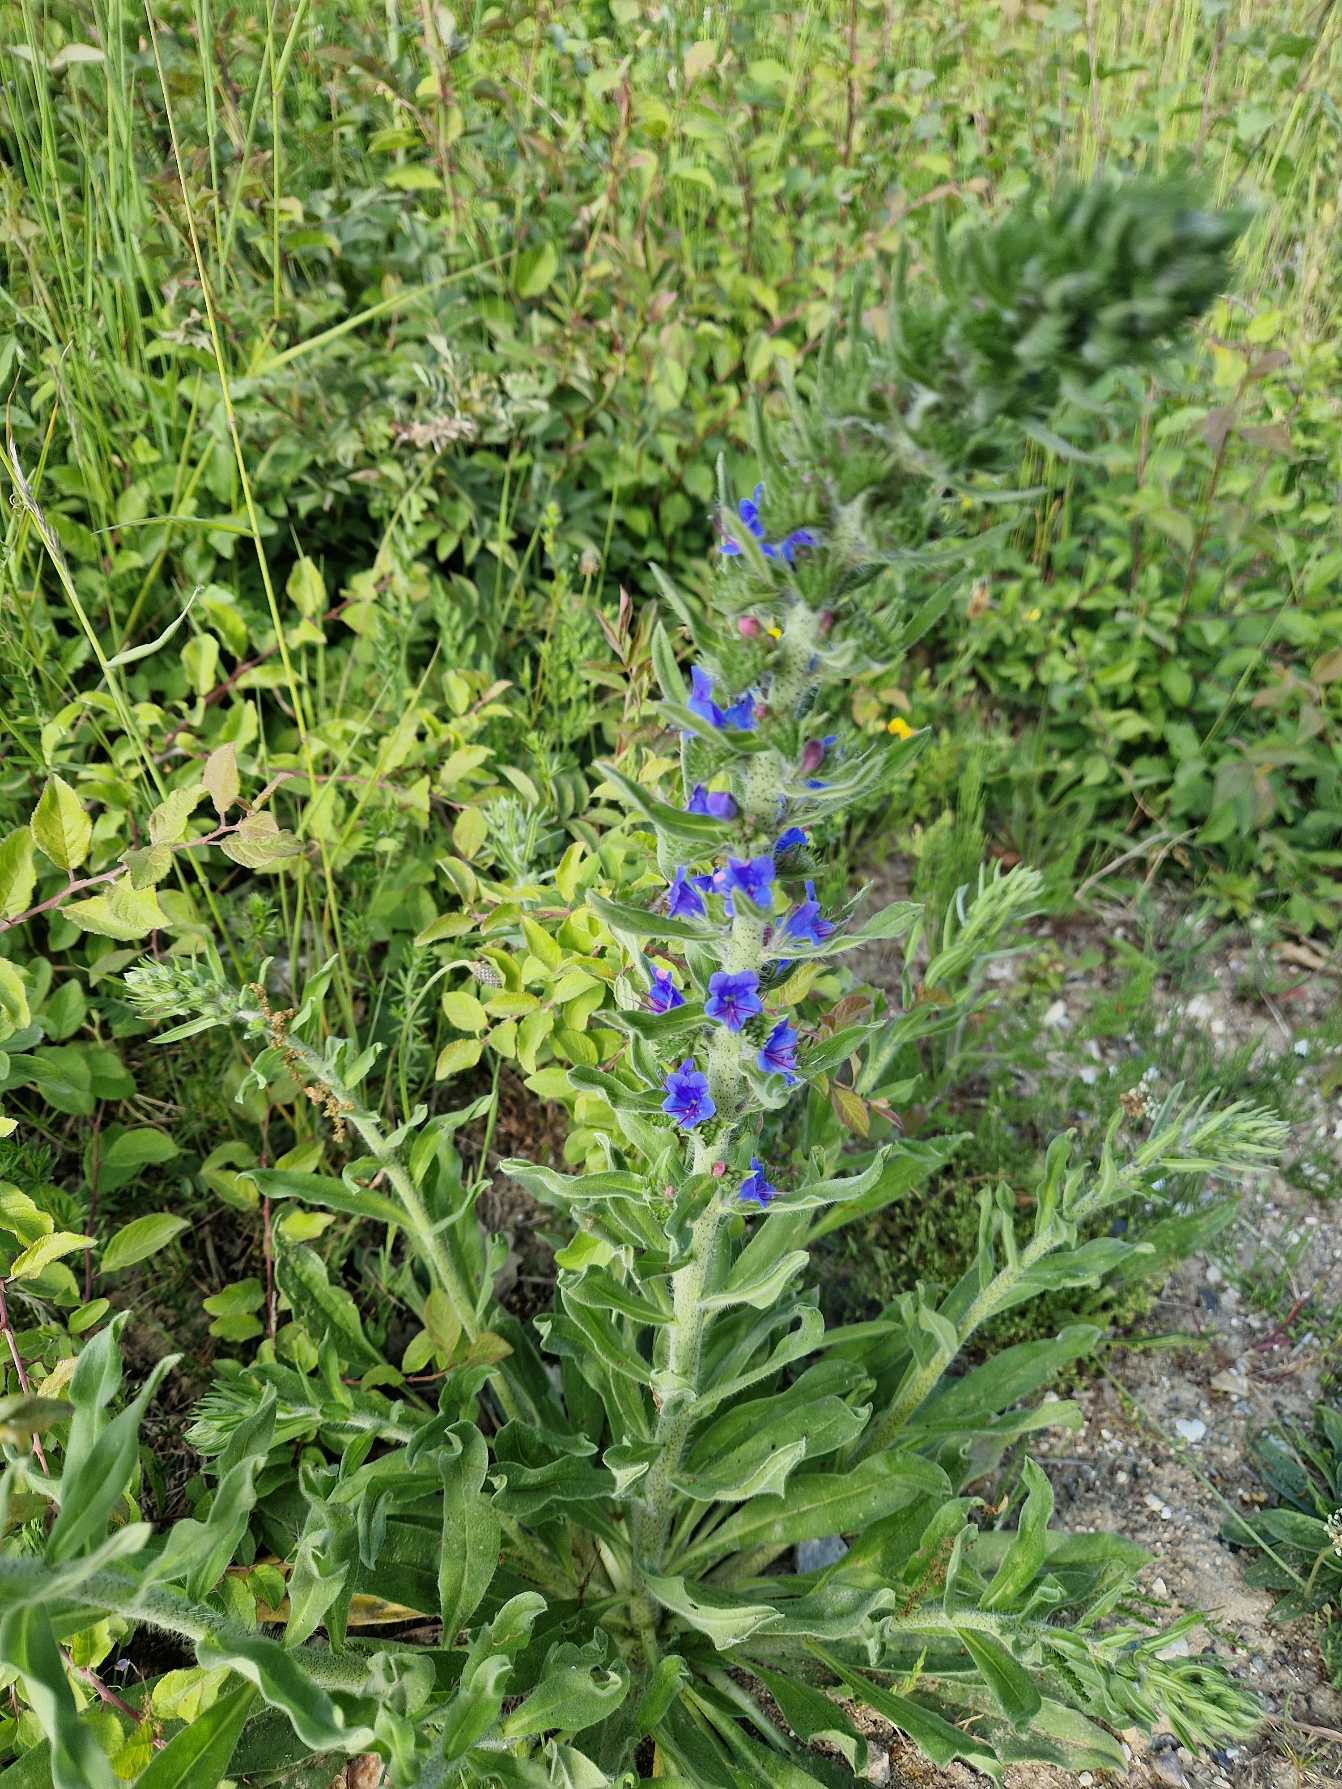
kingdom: Plantae
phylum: Tracheophyta
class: Magnoliopsida
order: Boraginales
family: Boraginaceae
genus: Echium
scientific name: Echium vulgare
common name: Slangehoved
